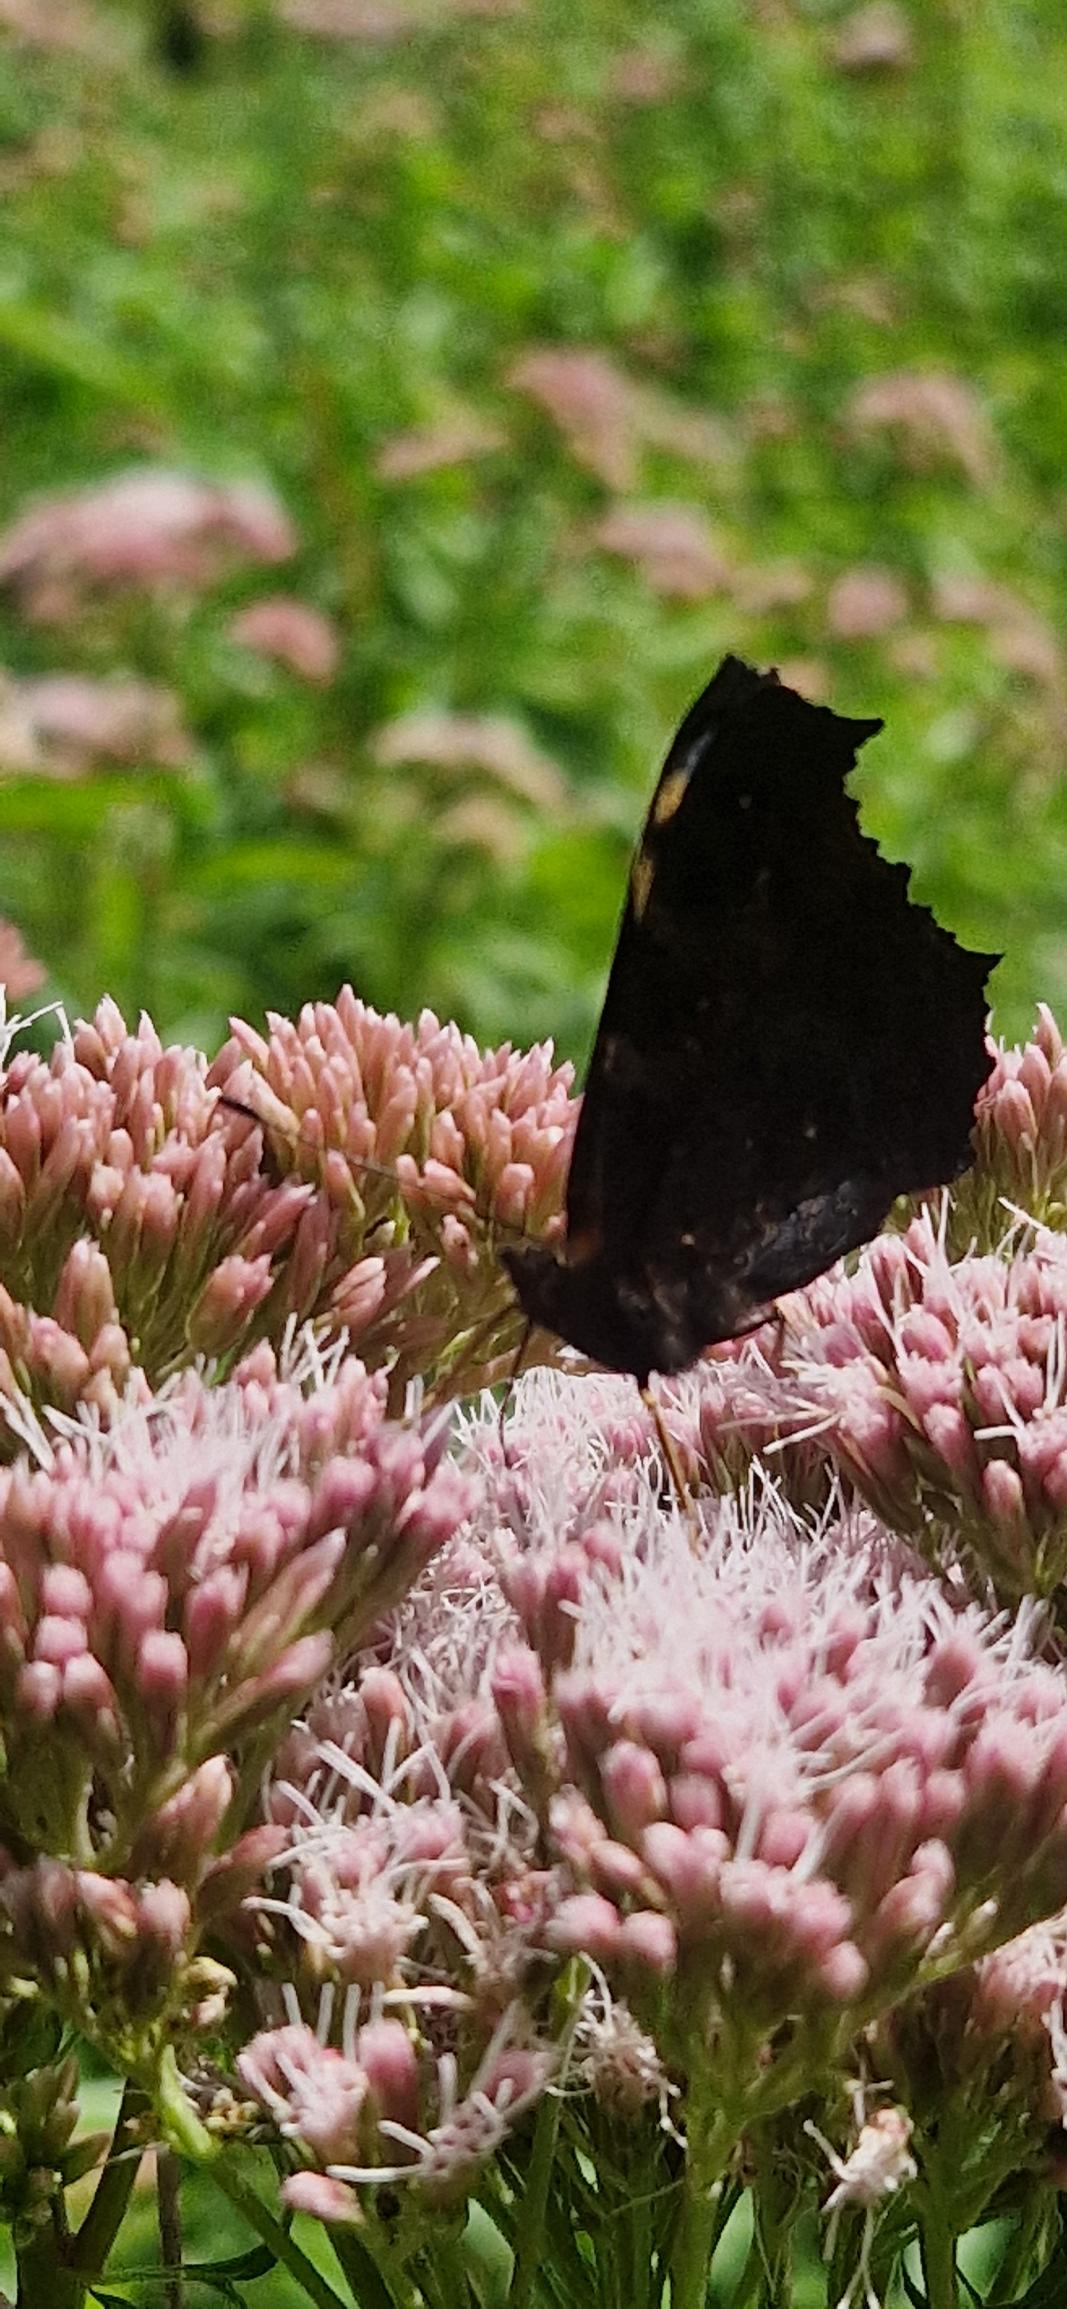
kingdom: Animalia
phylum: Arthropoda
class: Insecta
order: Lepidoptera
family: Nymphalidae
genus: Aglais
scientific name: Aglais io
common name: Dagpåfugleøje
